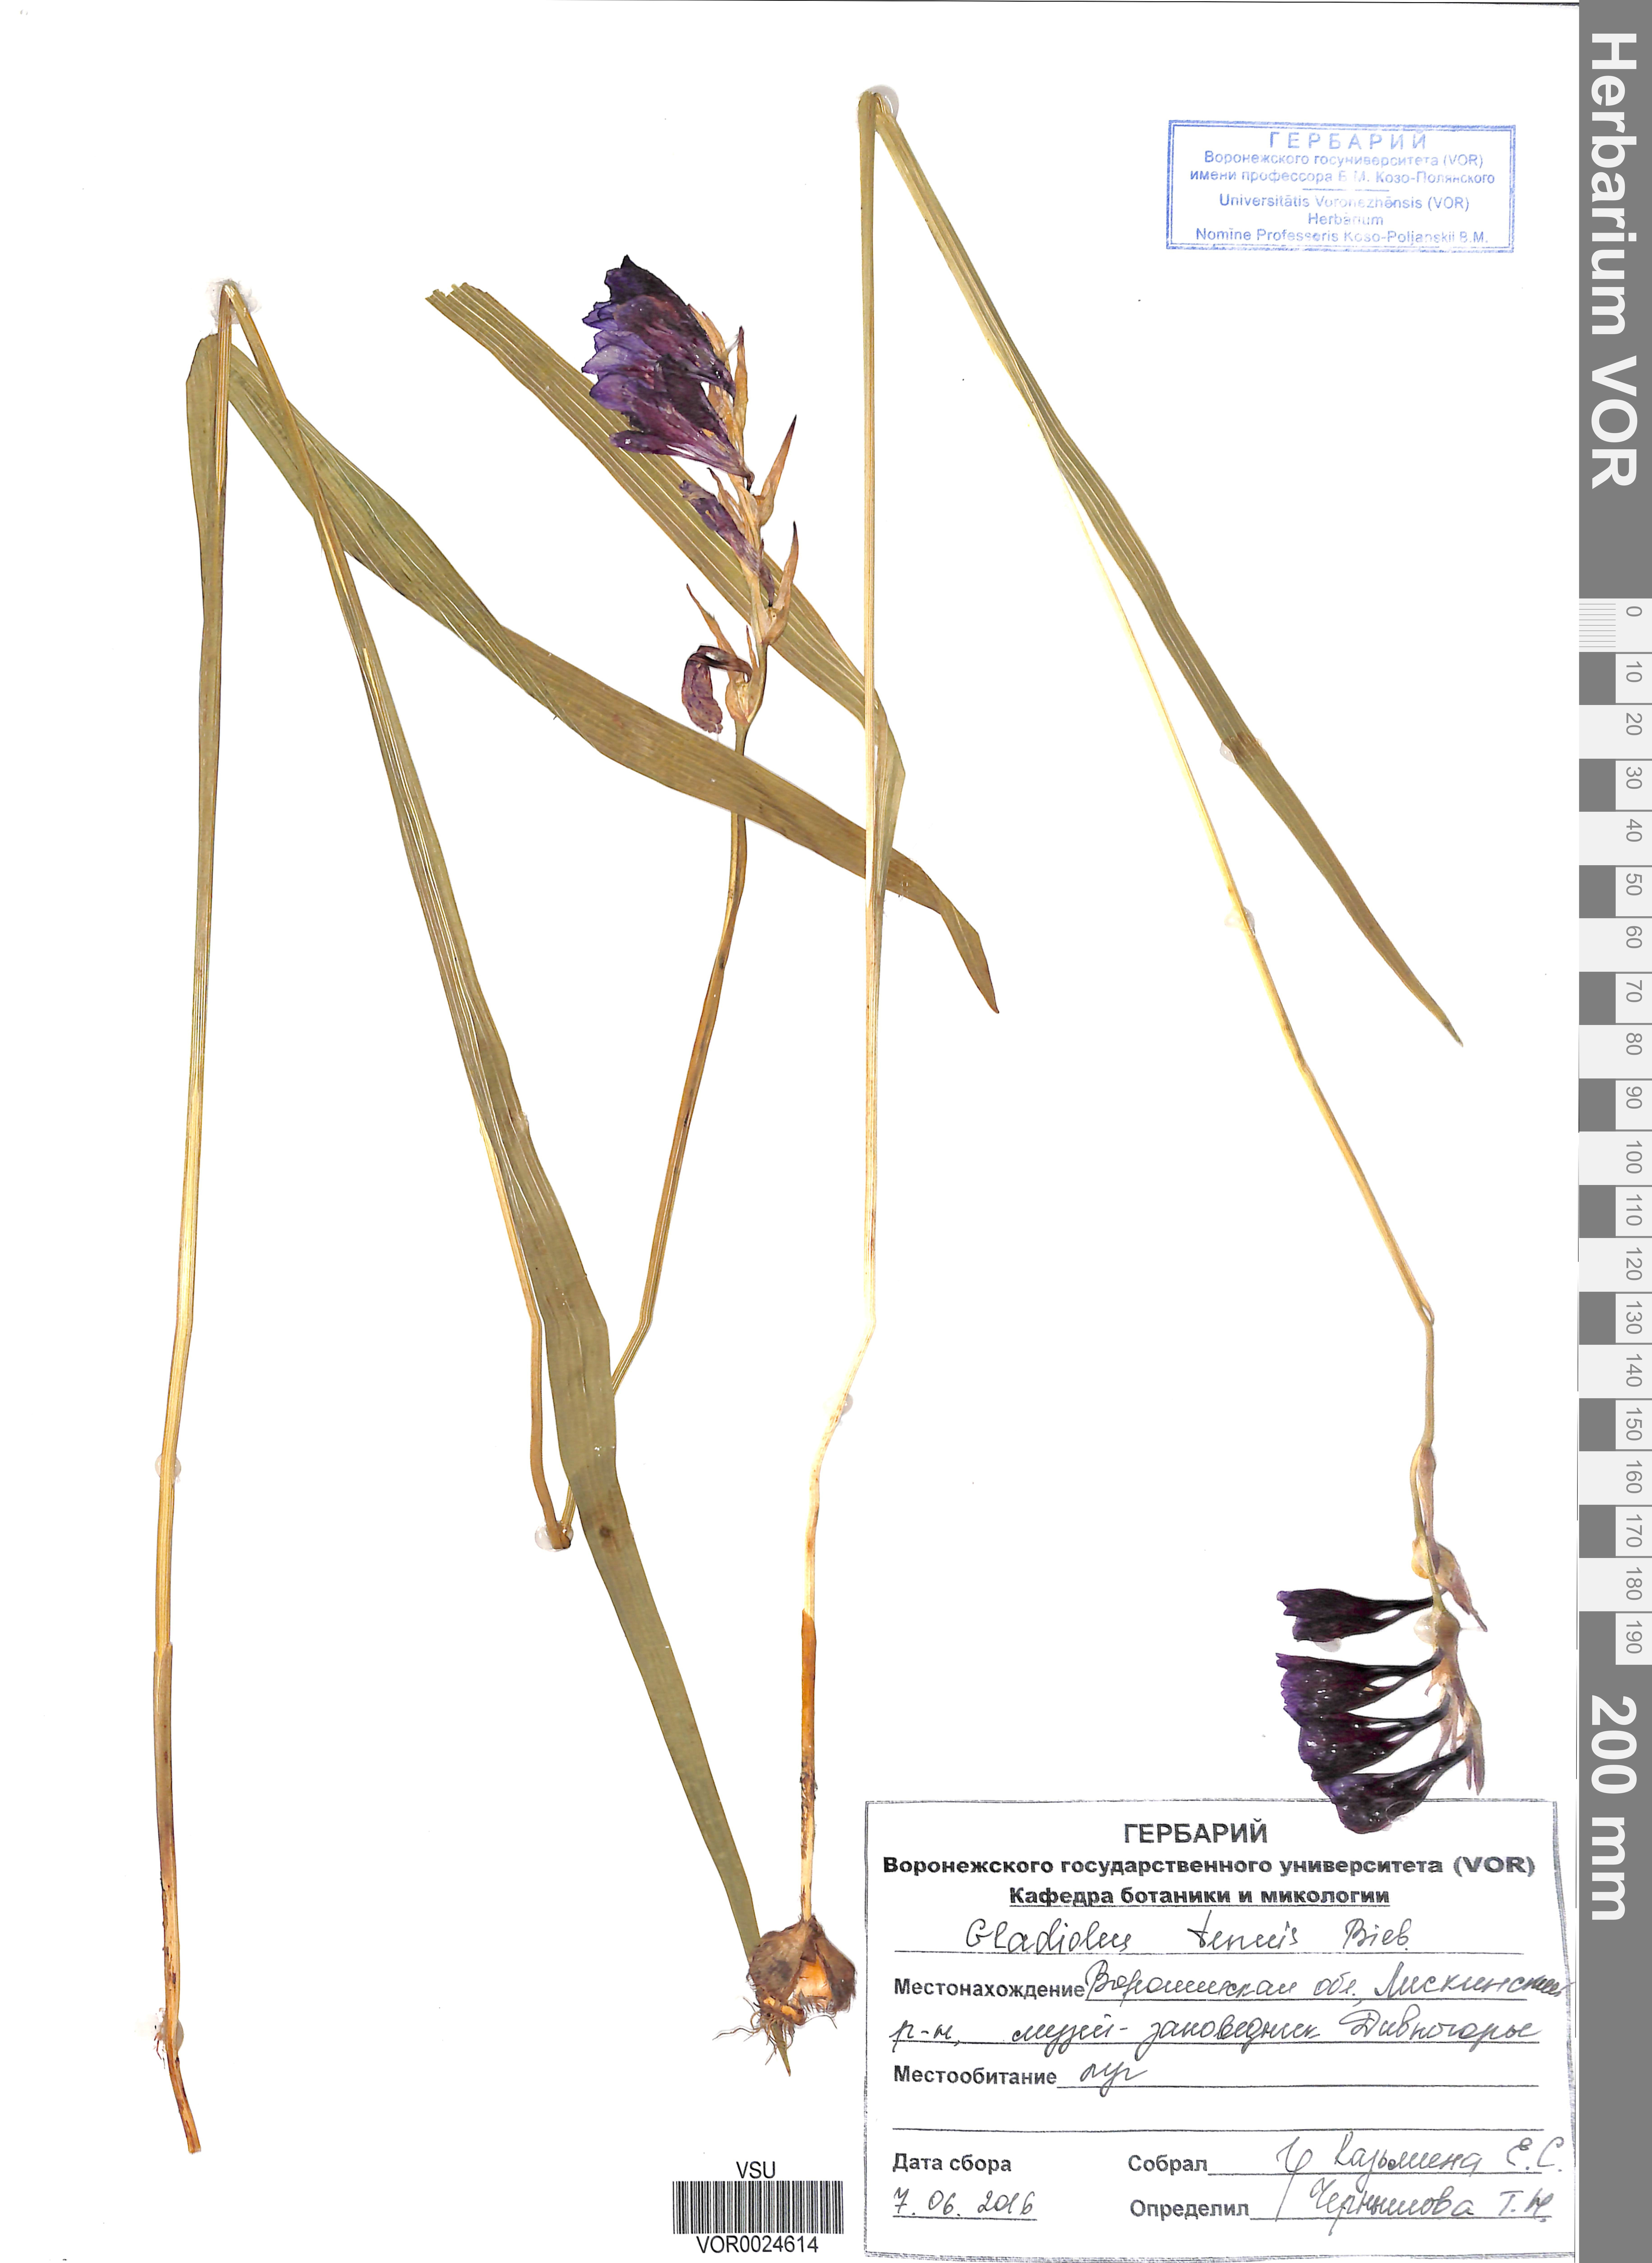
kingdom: Plantae
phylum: Tracheophyta
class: Liliopsida
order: Asparagales
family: Iridaceae
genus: Gladiolus
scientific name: Gladiolus tenuis
